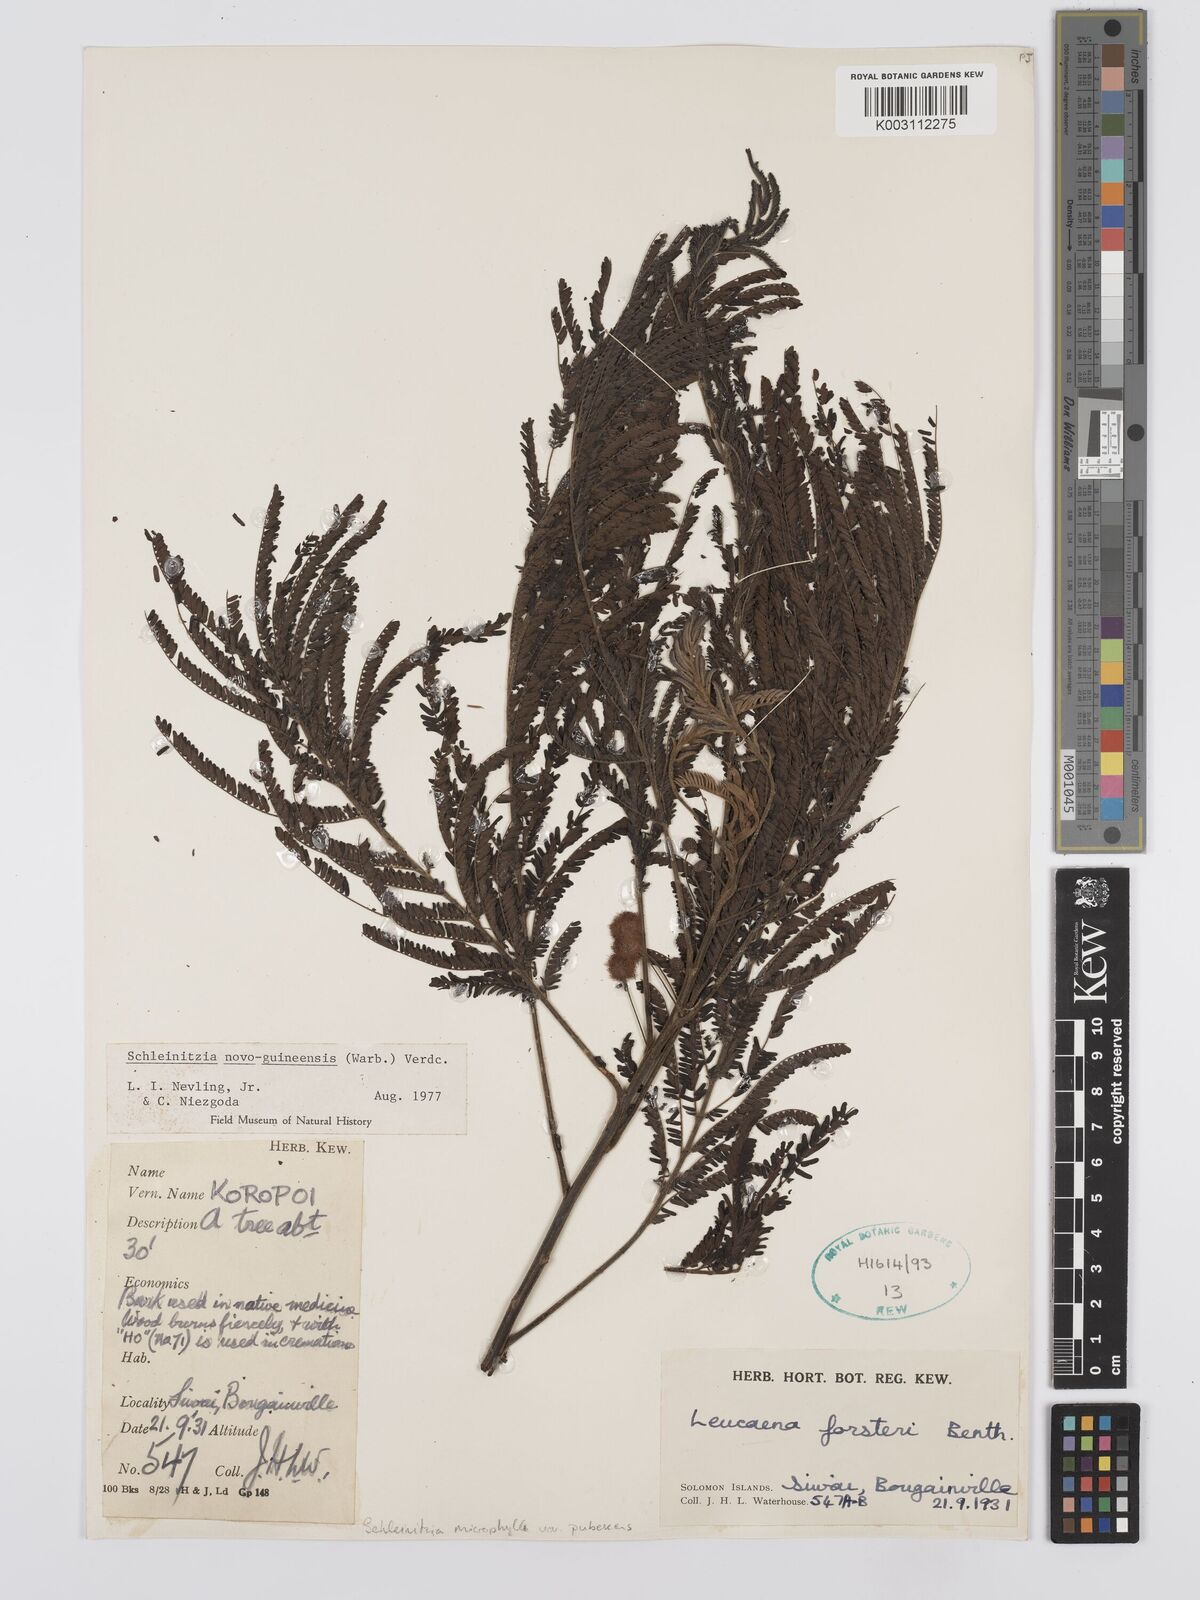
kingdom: Plantae
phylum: Tracheophyta
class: Magnoliopsida
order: Fabales
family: Fabaceae
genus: Schleinitzia
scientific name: Schleinitzia novoguineensis
